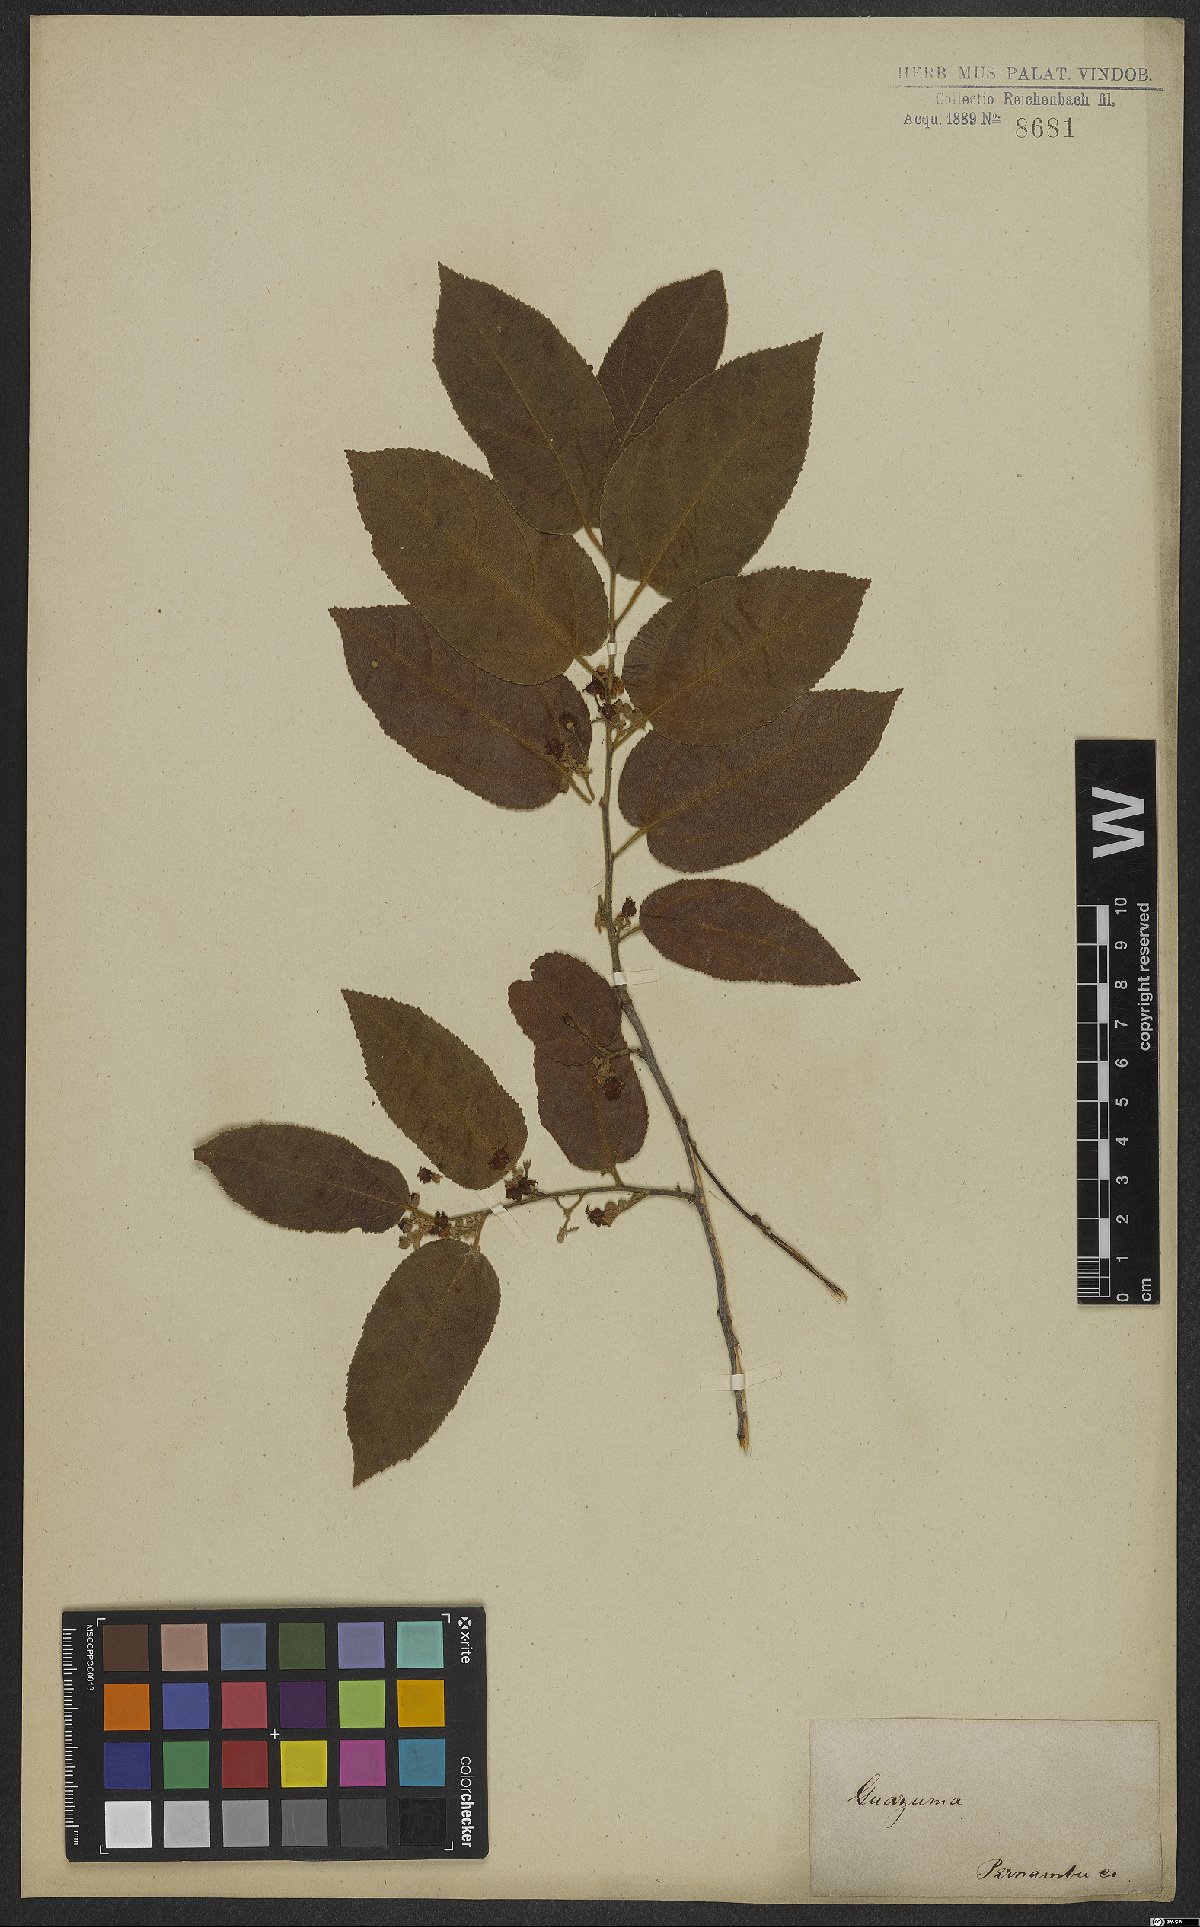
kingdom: Plantae
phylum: Tracheophyta
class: Magnoliopsida
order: Malvales
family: Malvaceae
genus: Guazuma
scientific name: Guazuma
